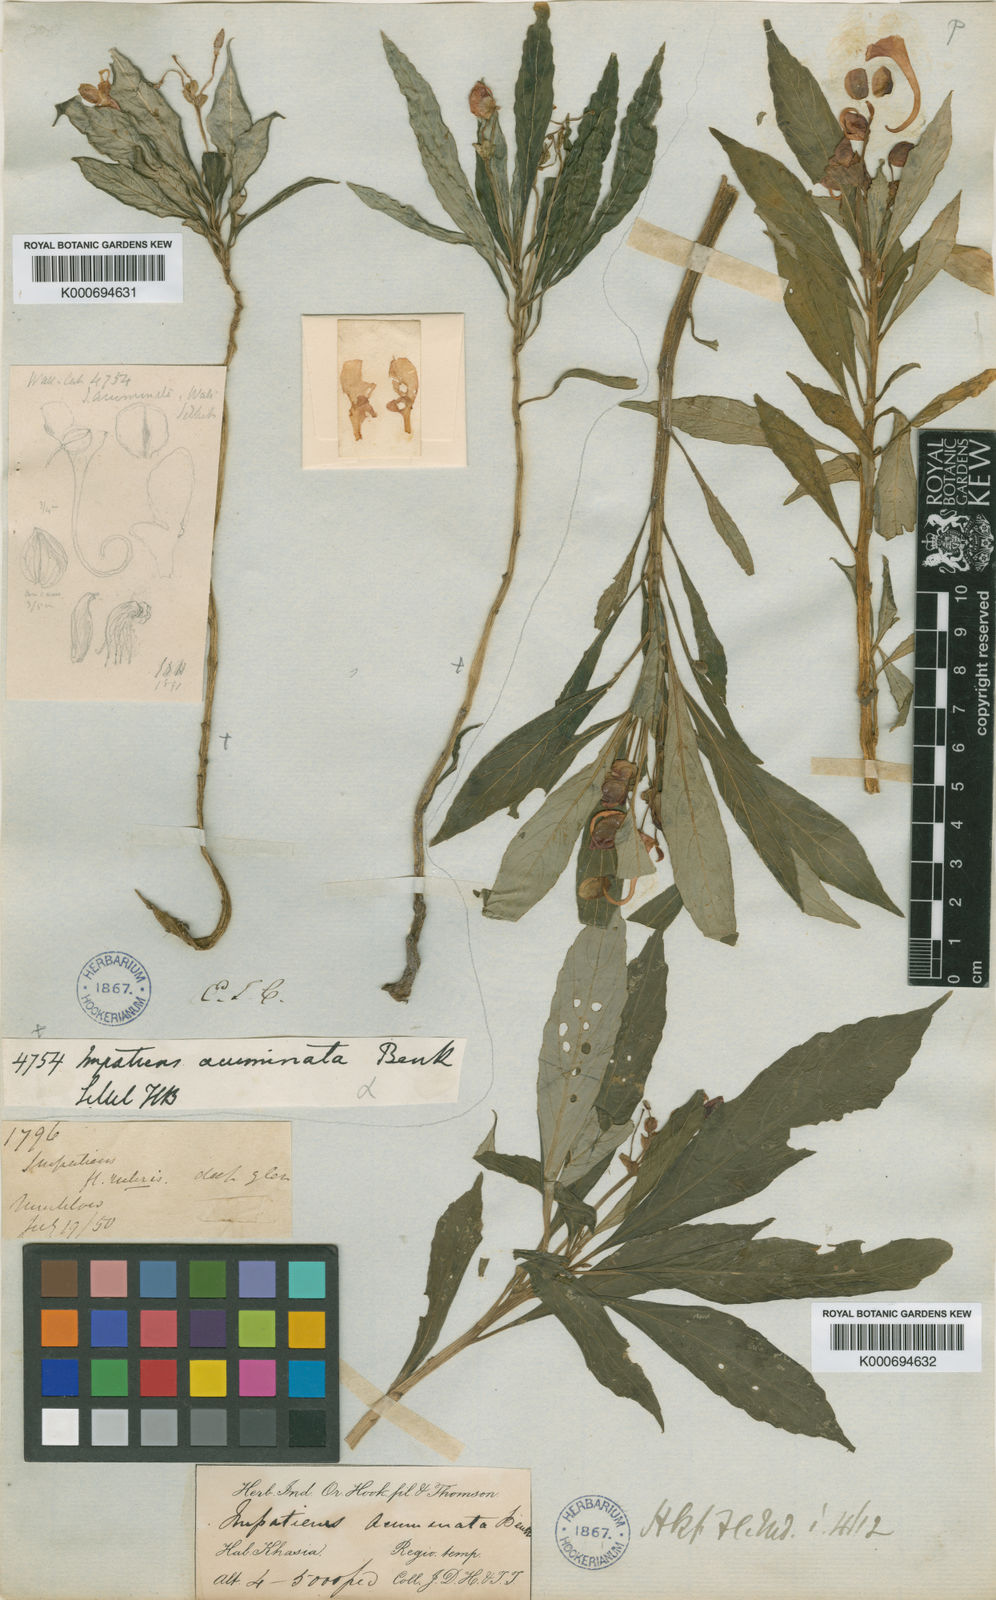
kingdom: Plantae
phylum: Tracheophyta
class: Magnoliopsida
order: Ericales
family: Balsaminaceae
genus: Impatiens
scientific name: Impatiens
